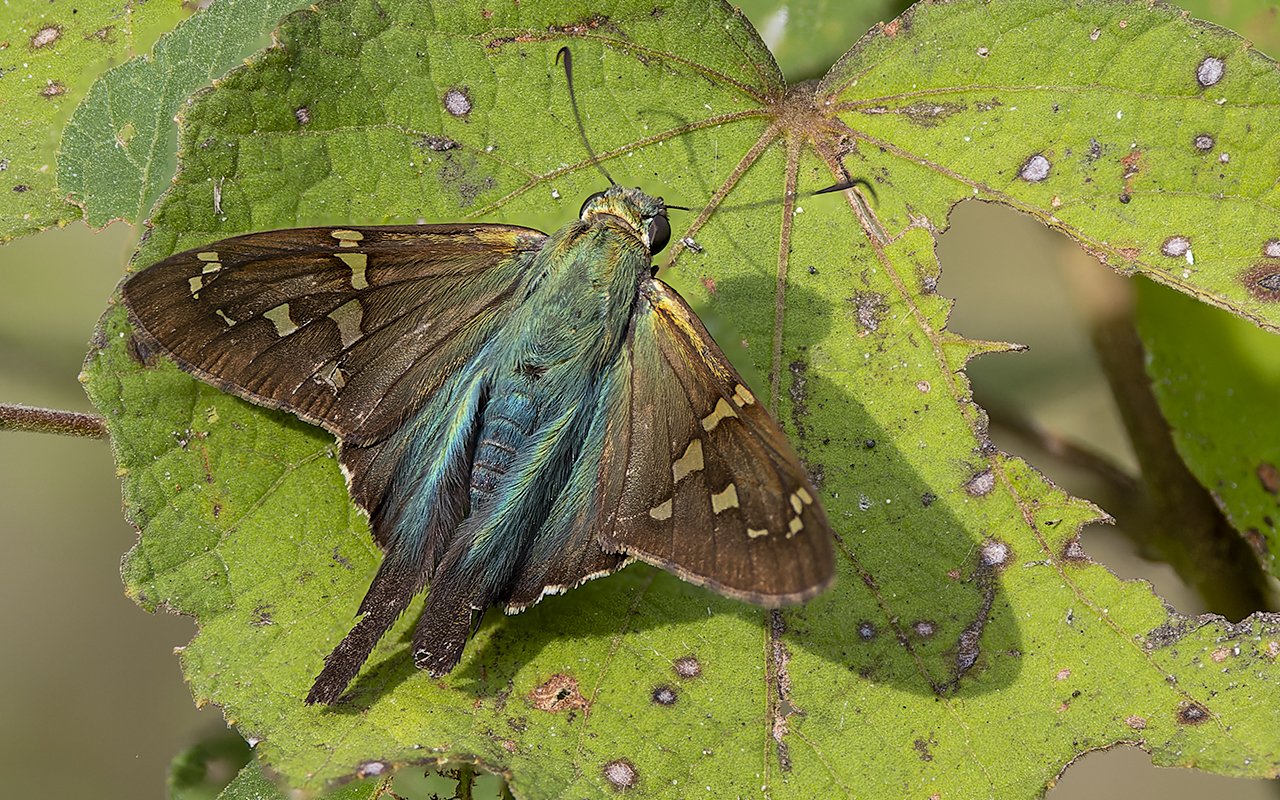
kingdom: Animalia
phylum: Arthropoda
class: Insecta
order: Lepidoptera
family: Hesperiidae
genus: Urbanus
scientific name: Urbanus proteus
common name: Long-tailed Skipper
